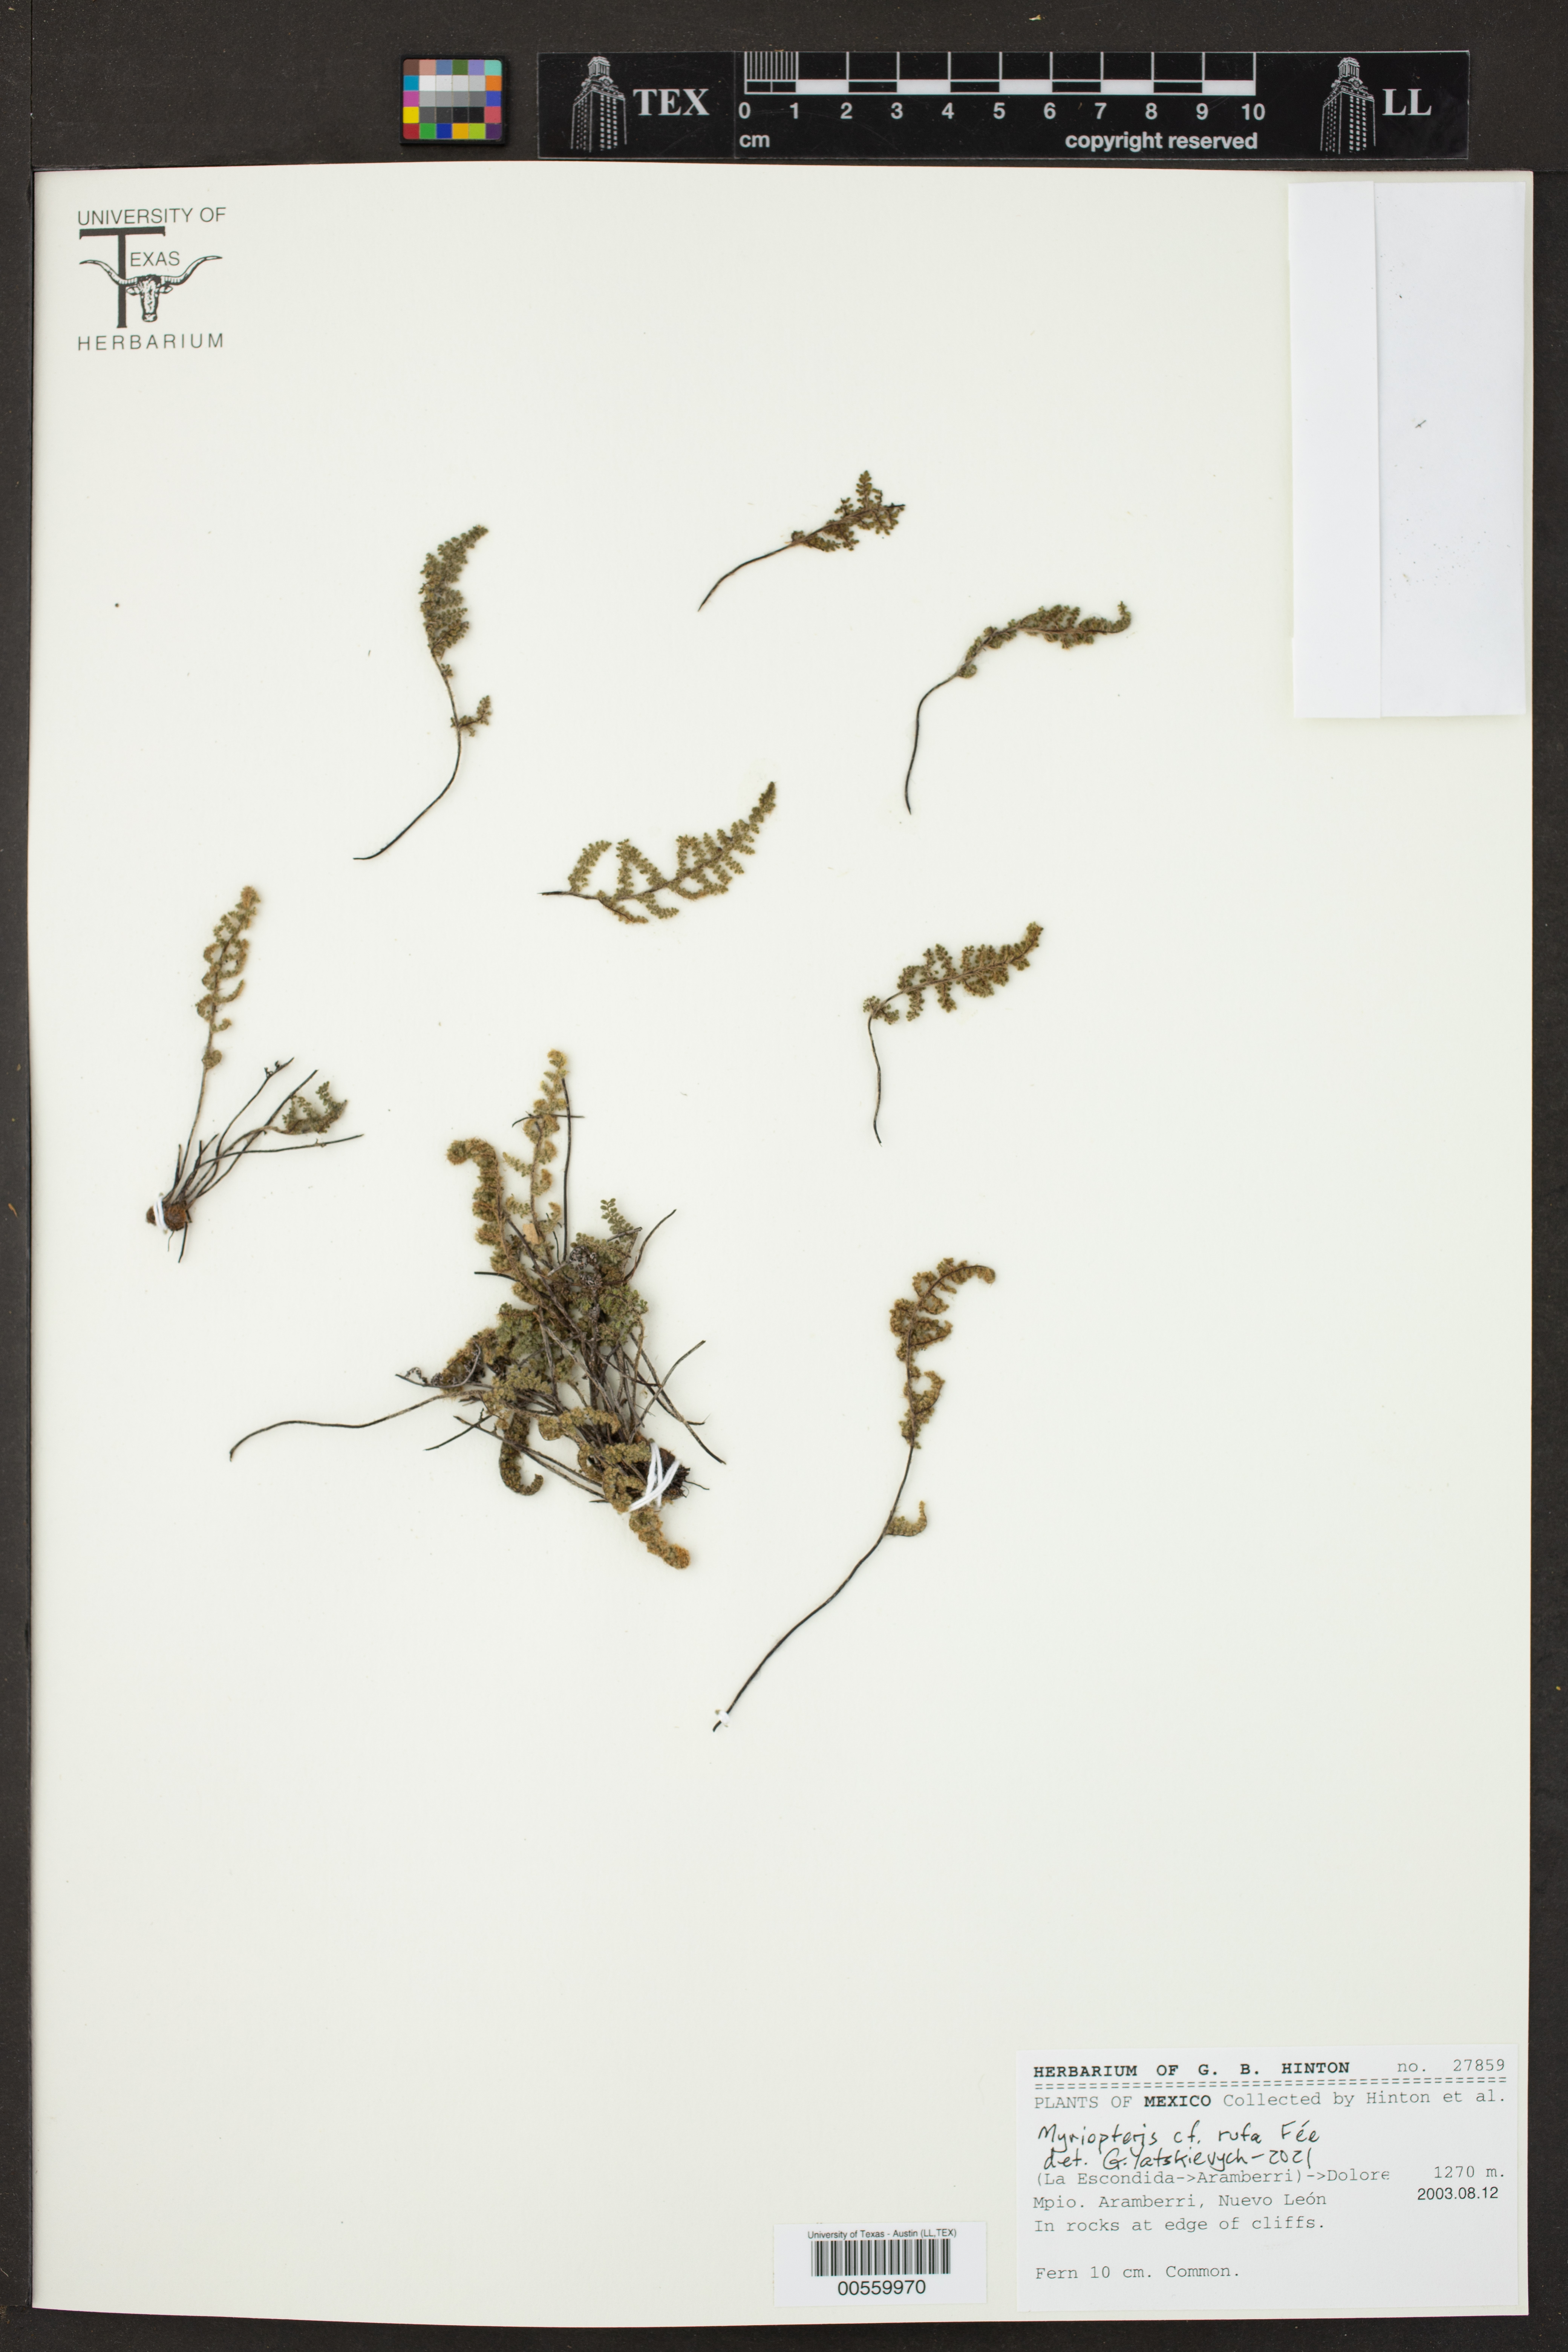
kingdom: Plantae
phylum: Tracheophyta
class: Polypodiopsida
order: Polypodiales
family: Pteridaceae
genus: Myriopteris
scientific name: Myriopteris rufa
